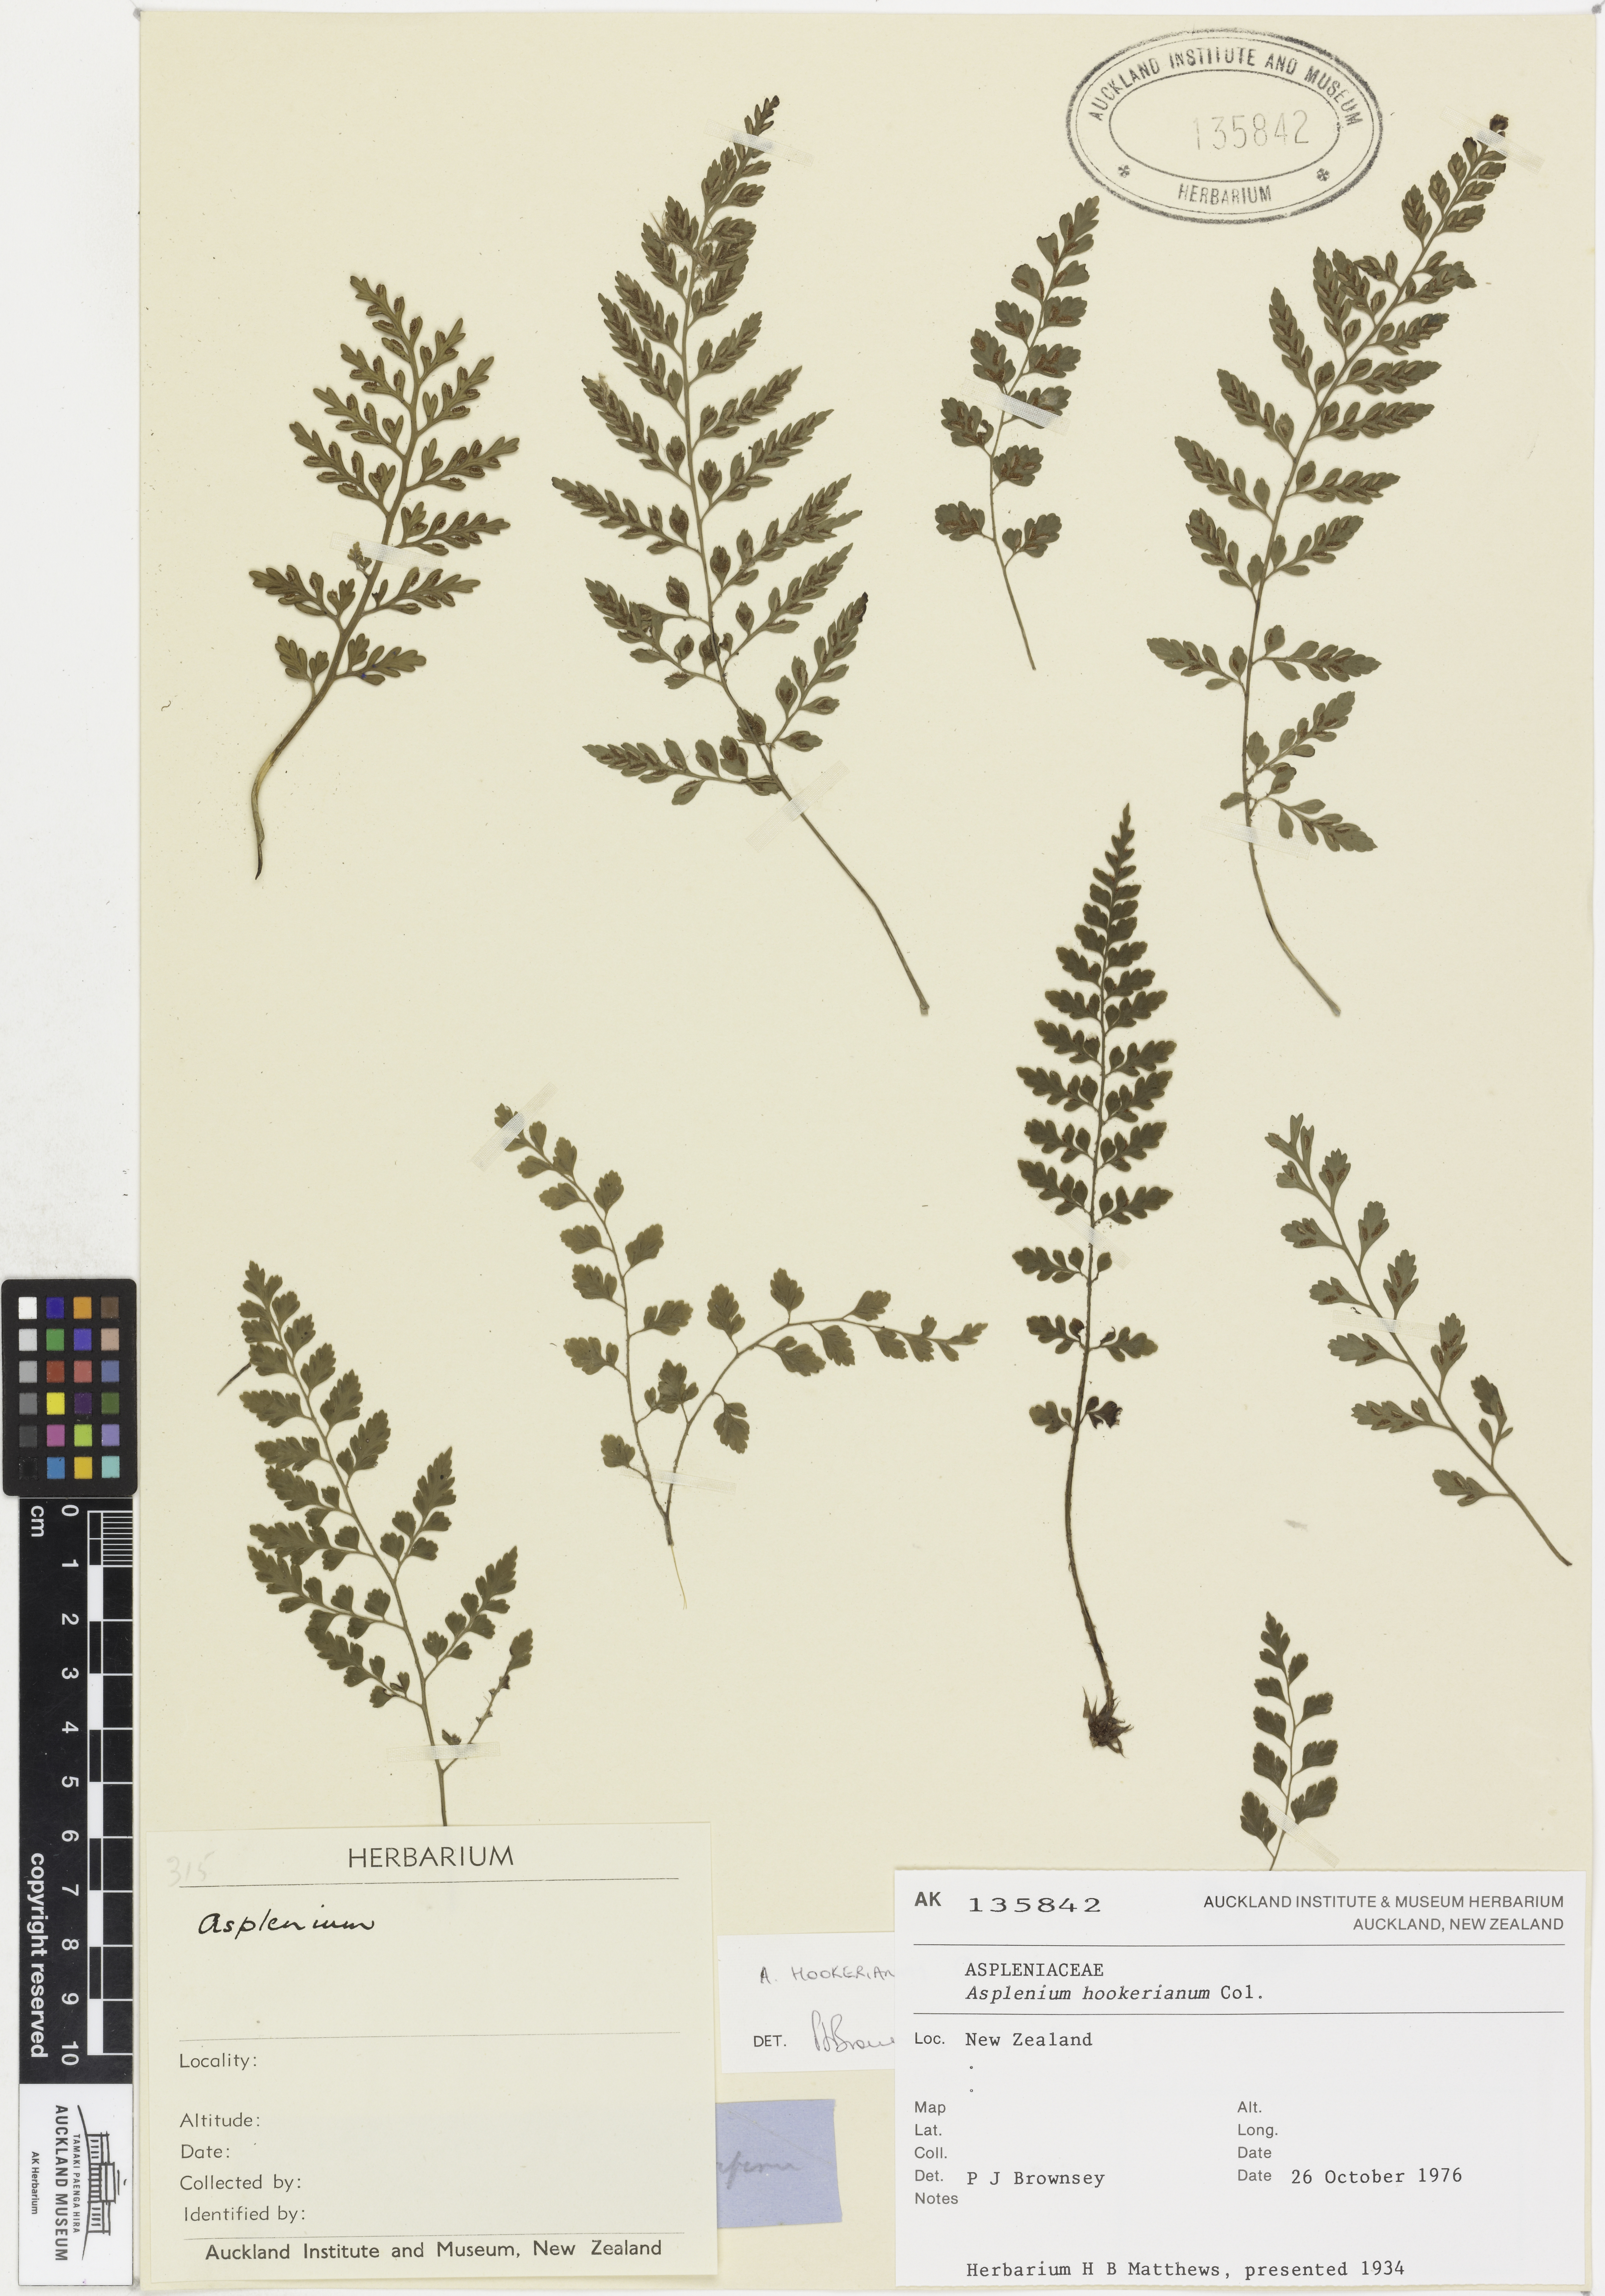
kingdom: Plantae
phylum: Tracheophyta
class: Polypodiopsida
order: Polypodiales
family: Aspleniaceae
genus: Asplenium
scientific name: Asplenium hookerianum
